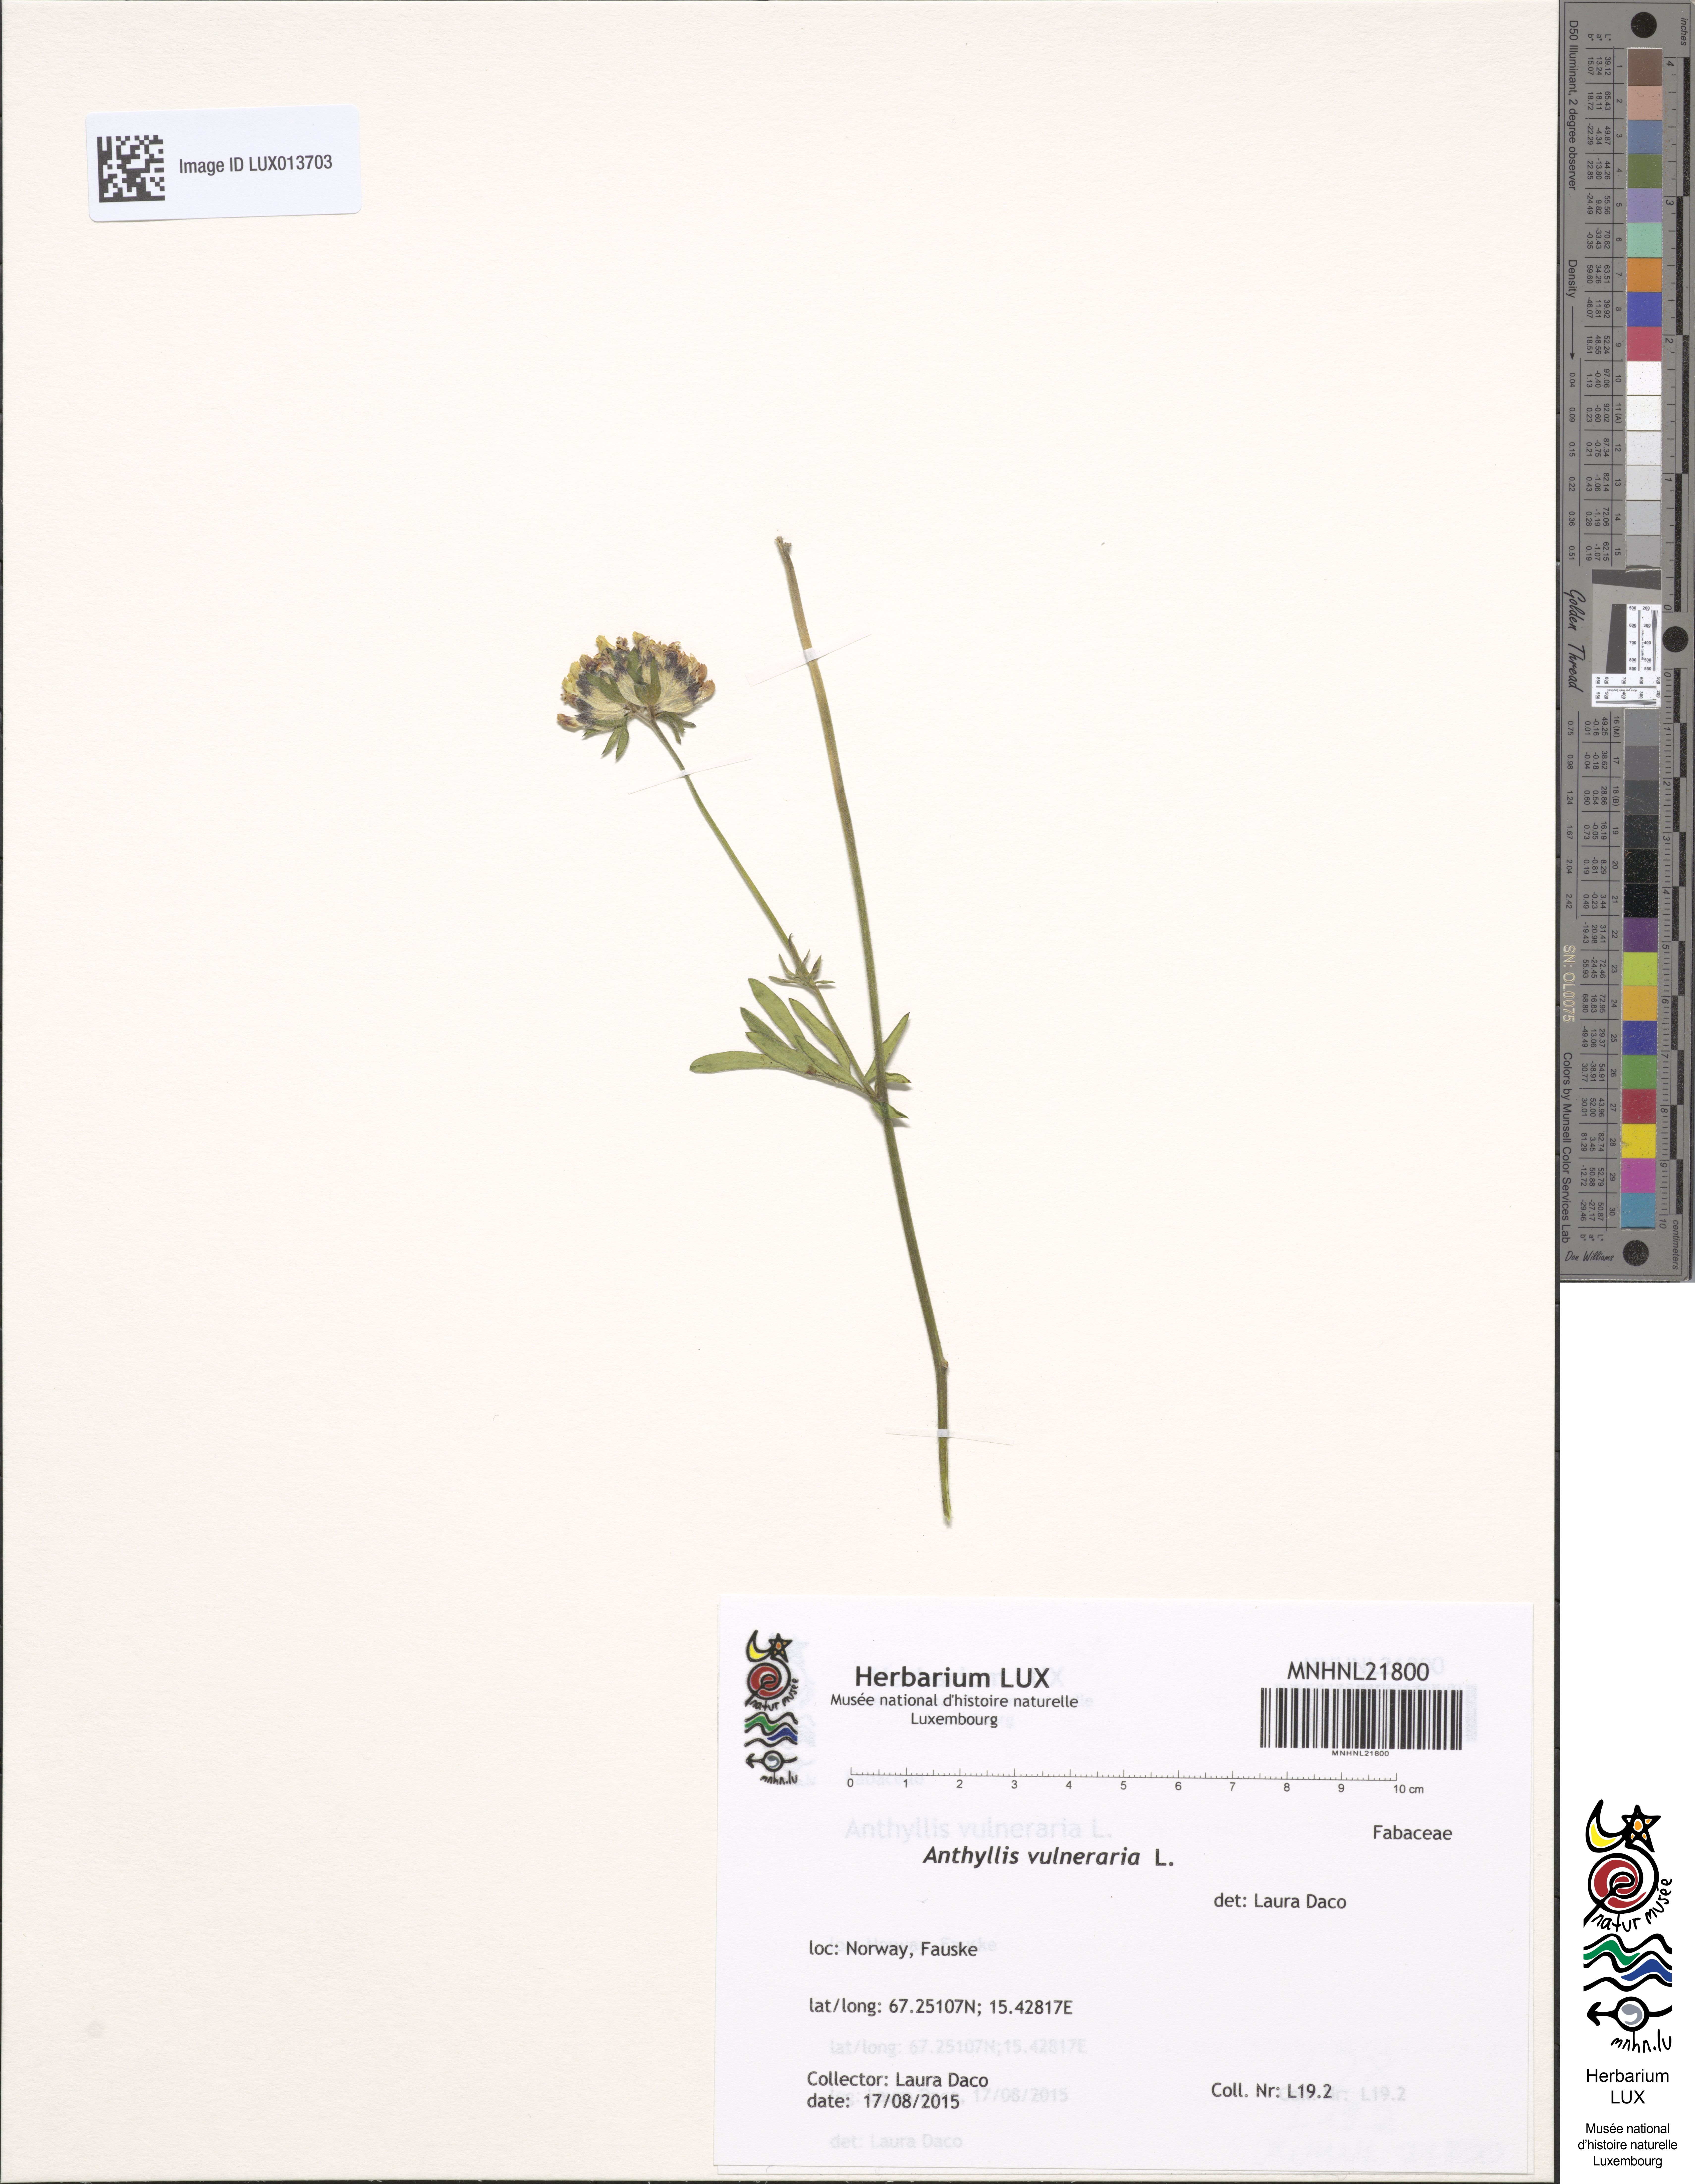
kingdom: Plantae
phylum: Tracheophyta
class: Magnoliopsida
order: Fabales
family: Fabaceae
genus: Anthyllis
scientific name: Anthyllis vulneraria
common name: Kidney vetch
